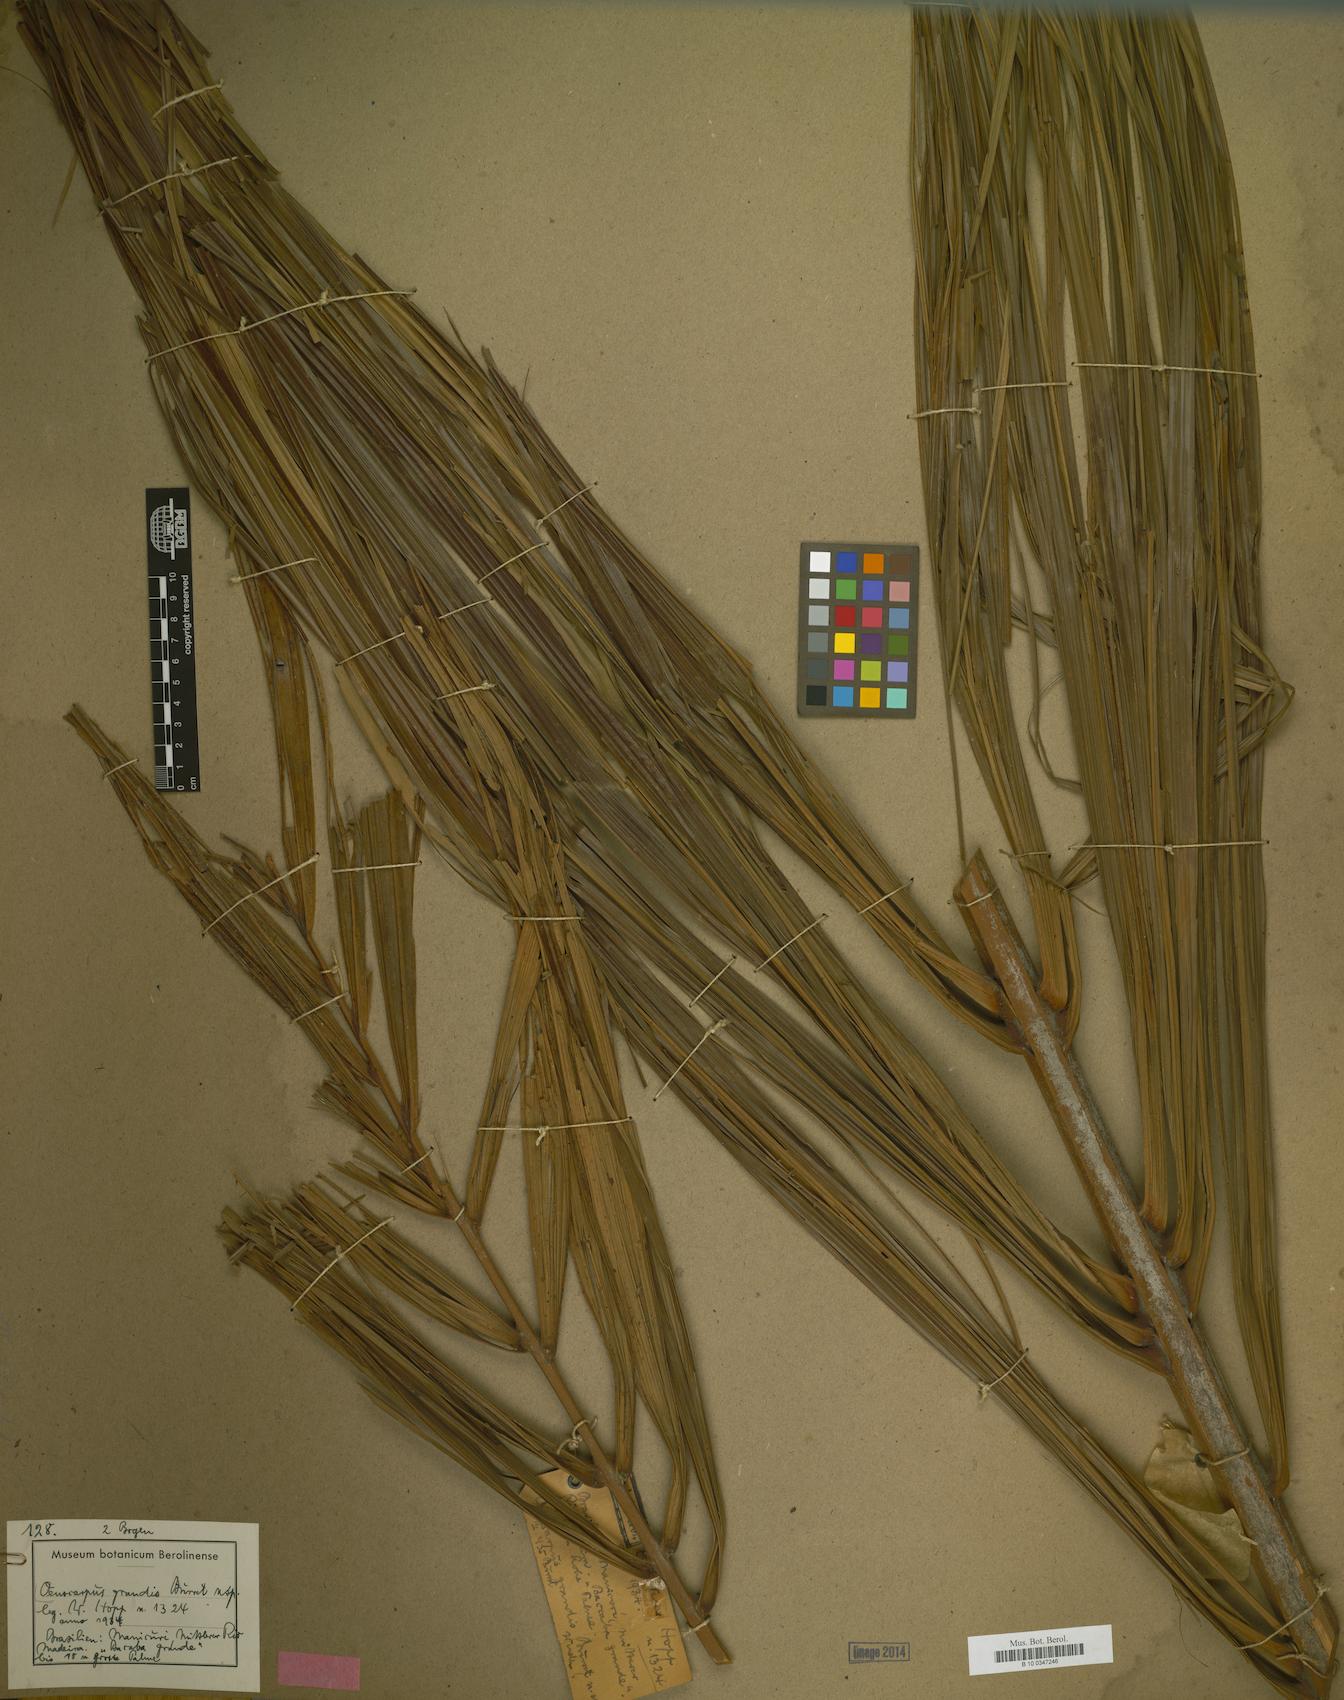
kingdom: Plantae
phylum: Tracheophyta
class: Liliopsida
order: Arecales
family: Arecaceae
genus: Oenocarpus
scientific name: Oenocarpus bacaba
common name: Bacaba palm
